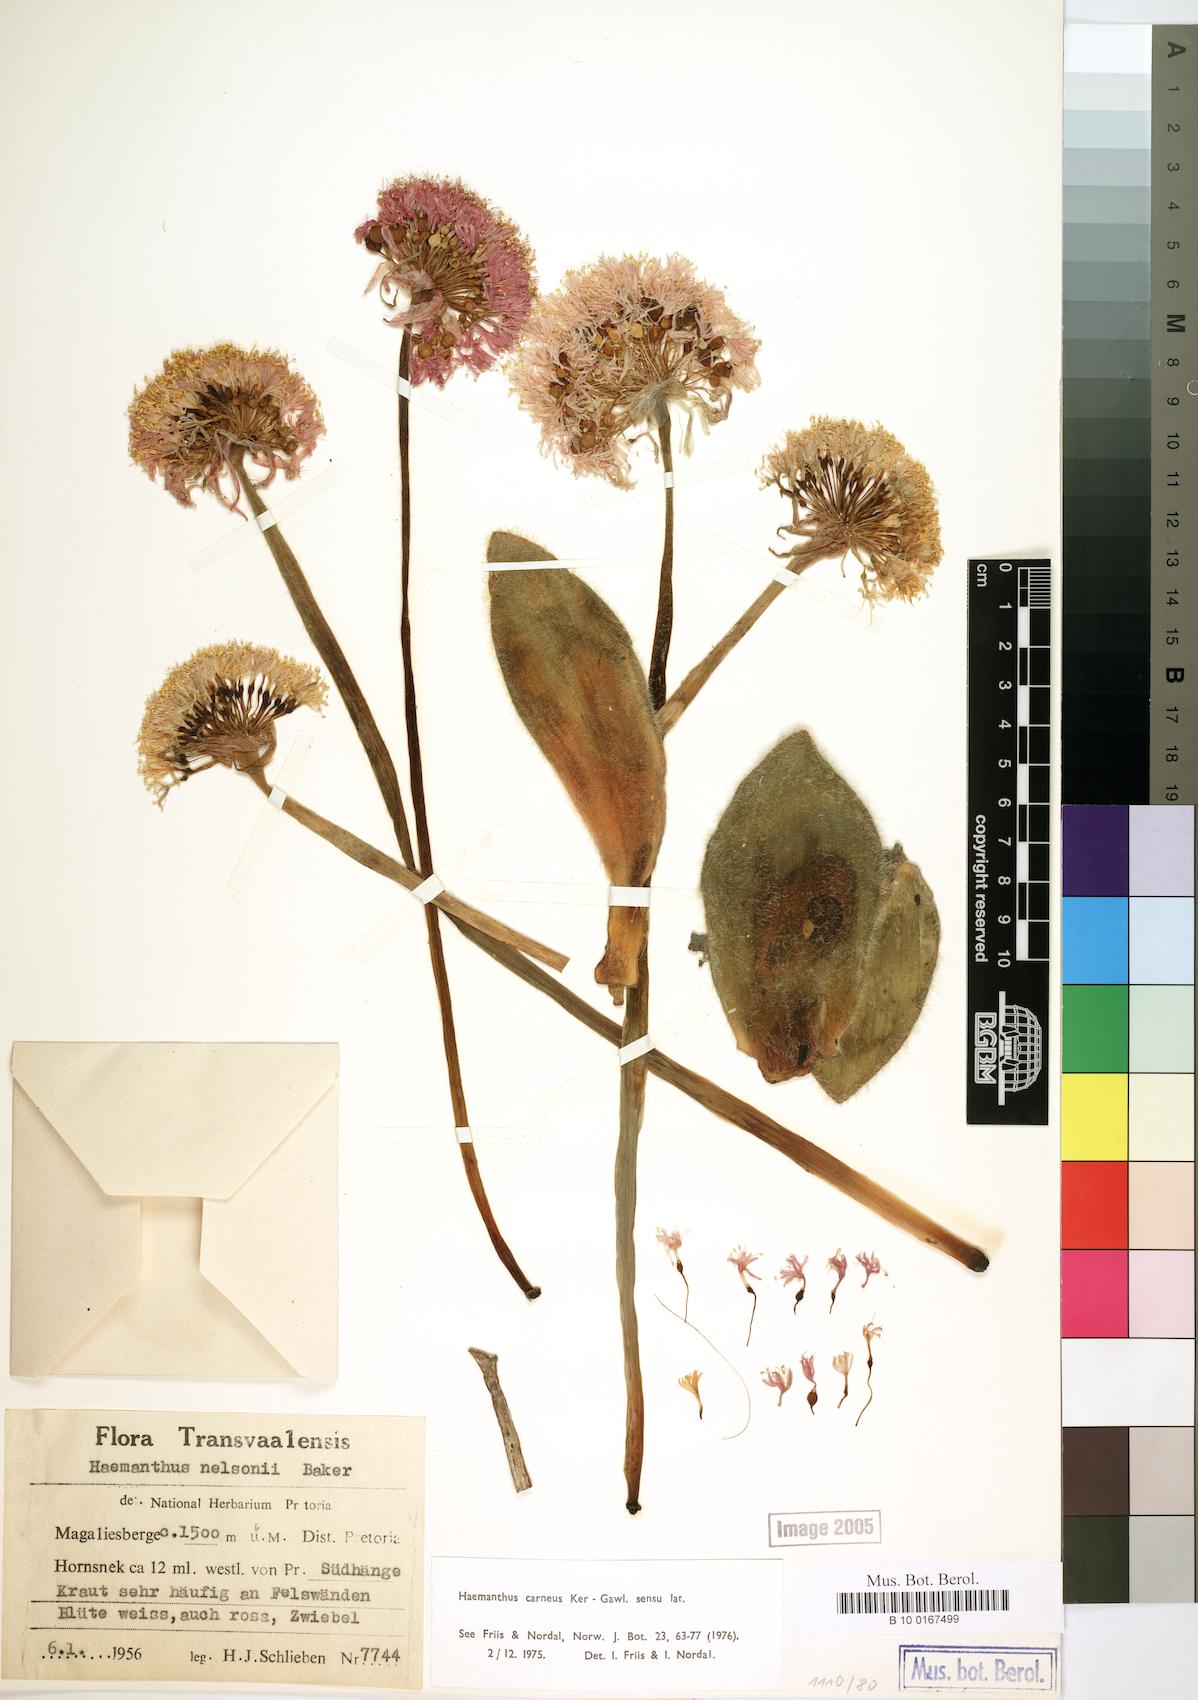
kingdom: Plantae
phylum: Tracheophyta
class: Liliopsida
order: Asparagales
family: Amaryllidaceae
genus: Haemanthus
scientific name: Haemanthus carneus
